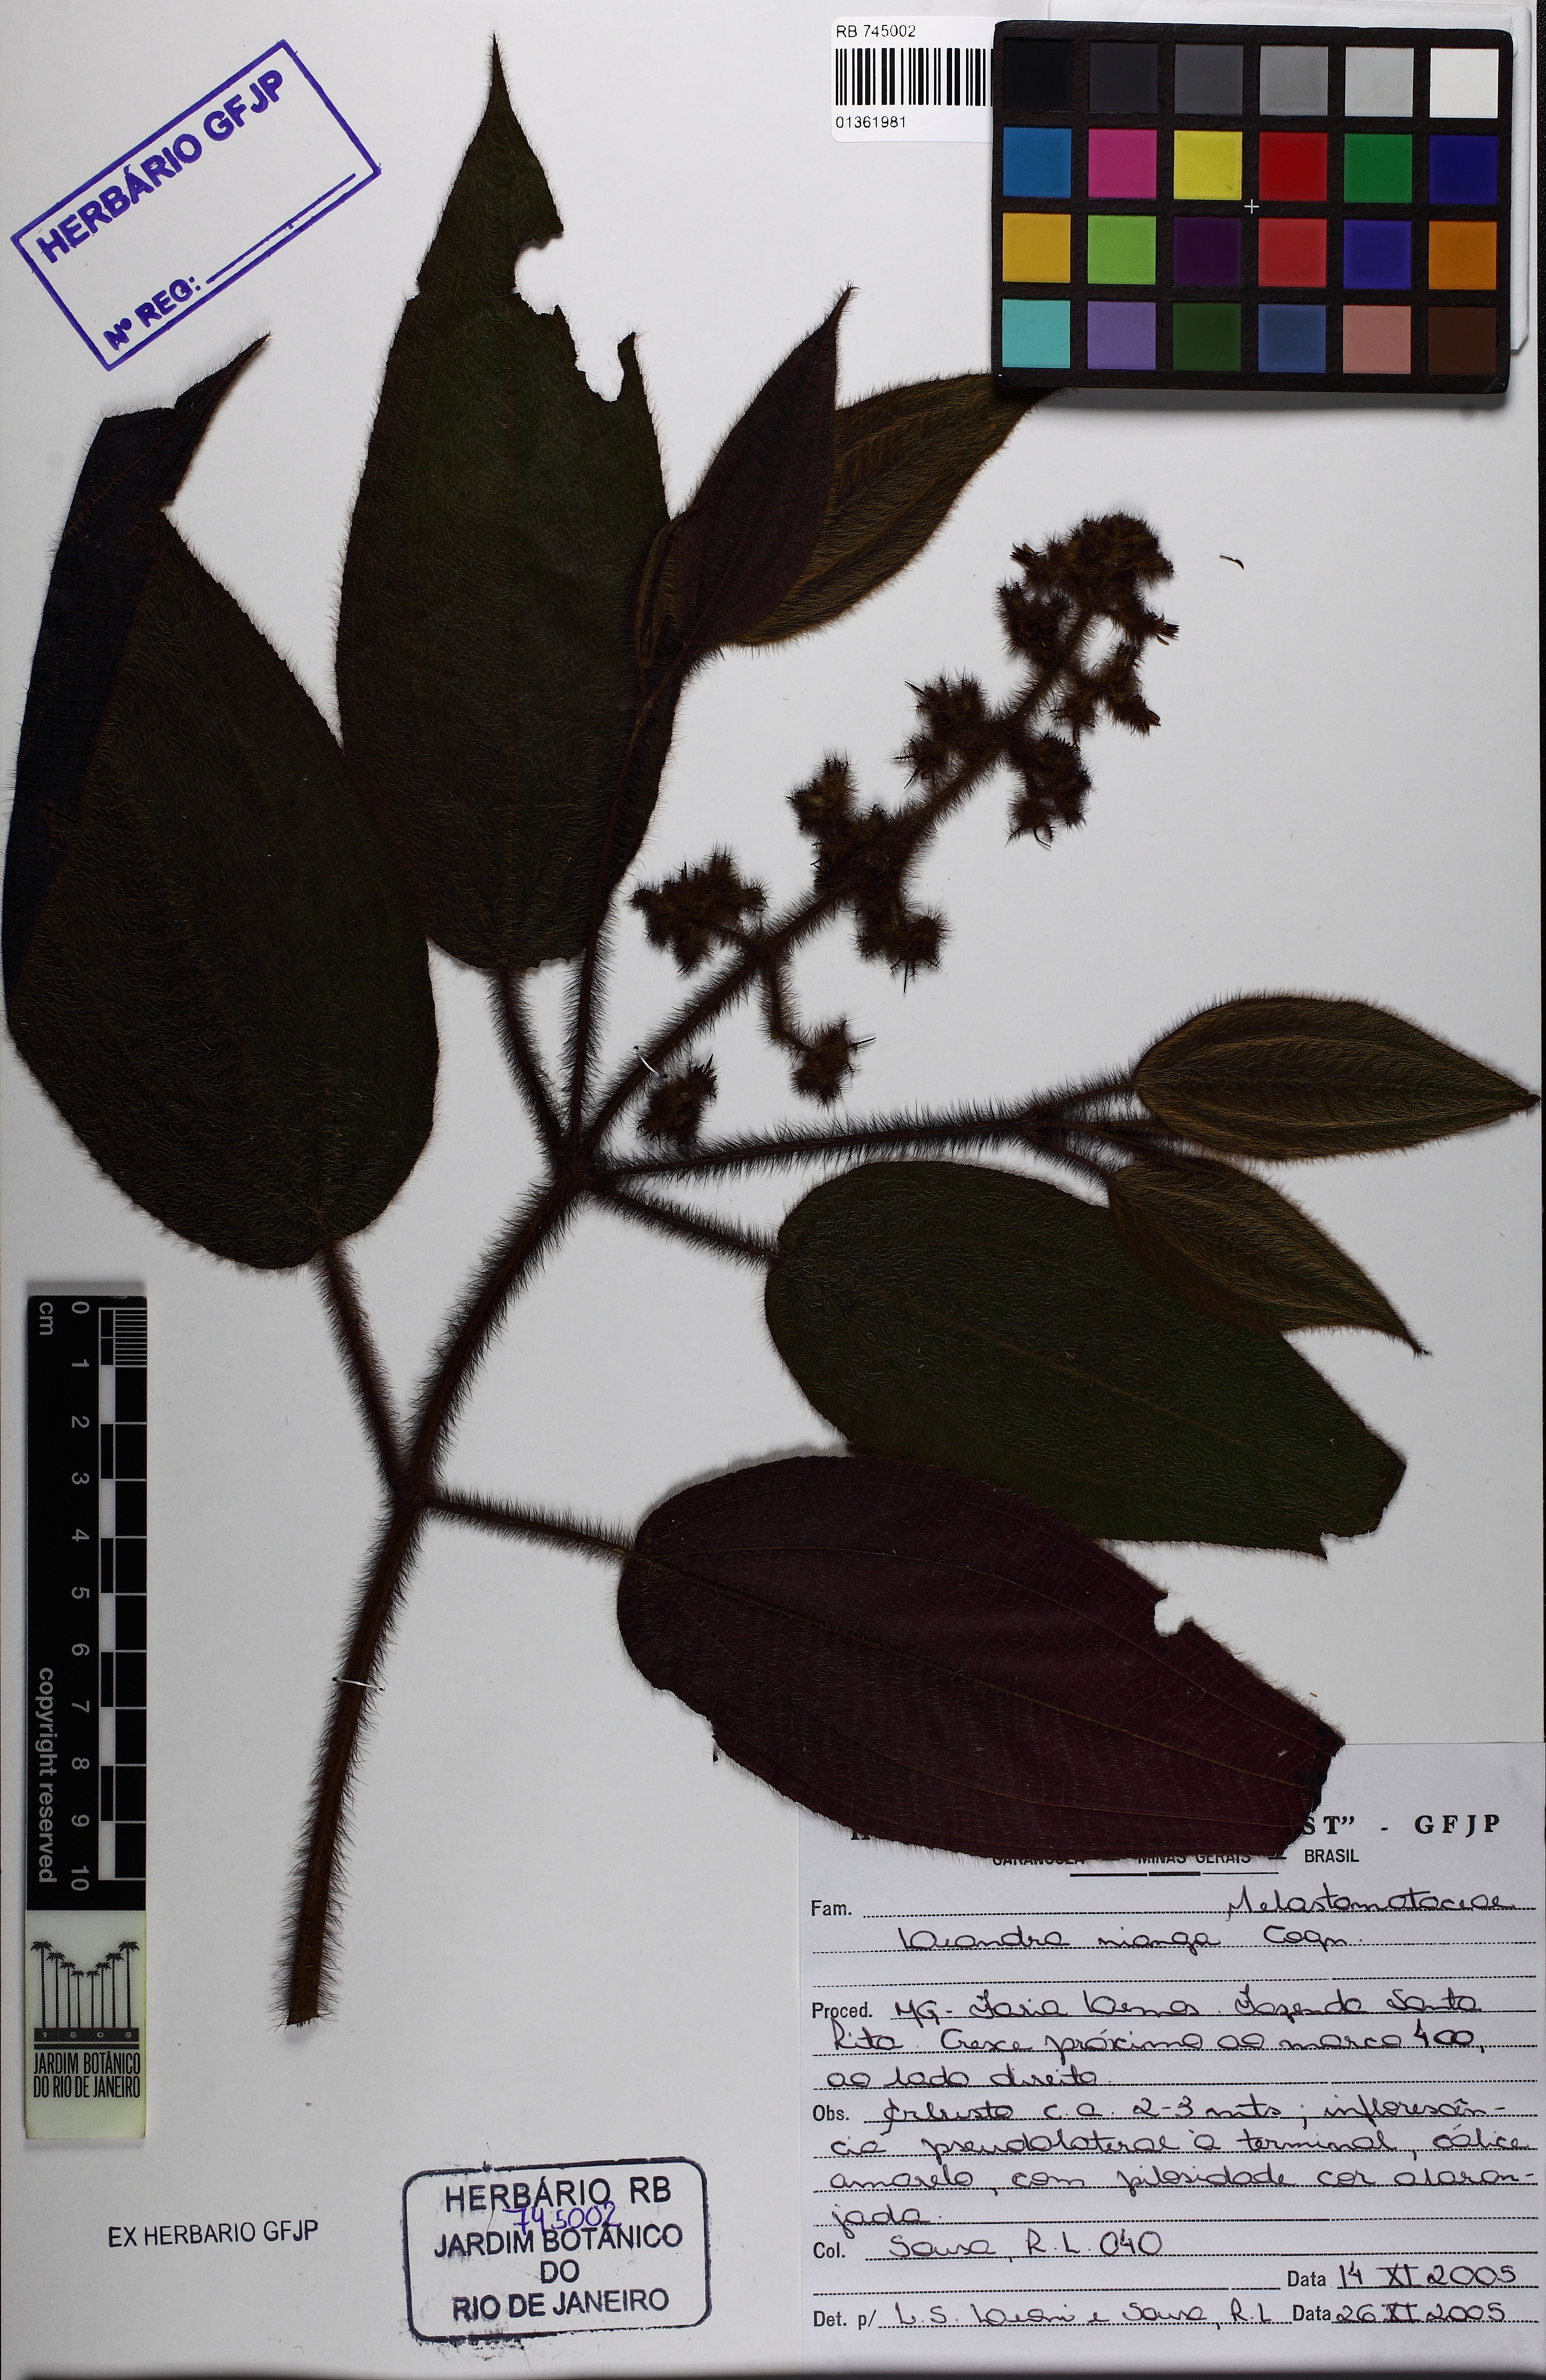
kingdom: Plantae
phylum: Tracheophyta
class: Magnoliopsida
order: Myrtales
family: Melastomataceae
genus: Miconia
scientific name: Miconia nianga
